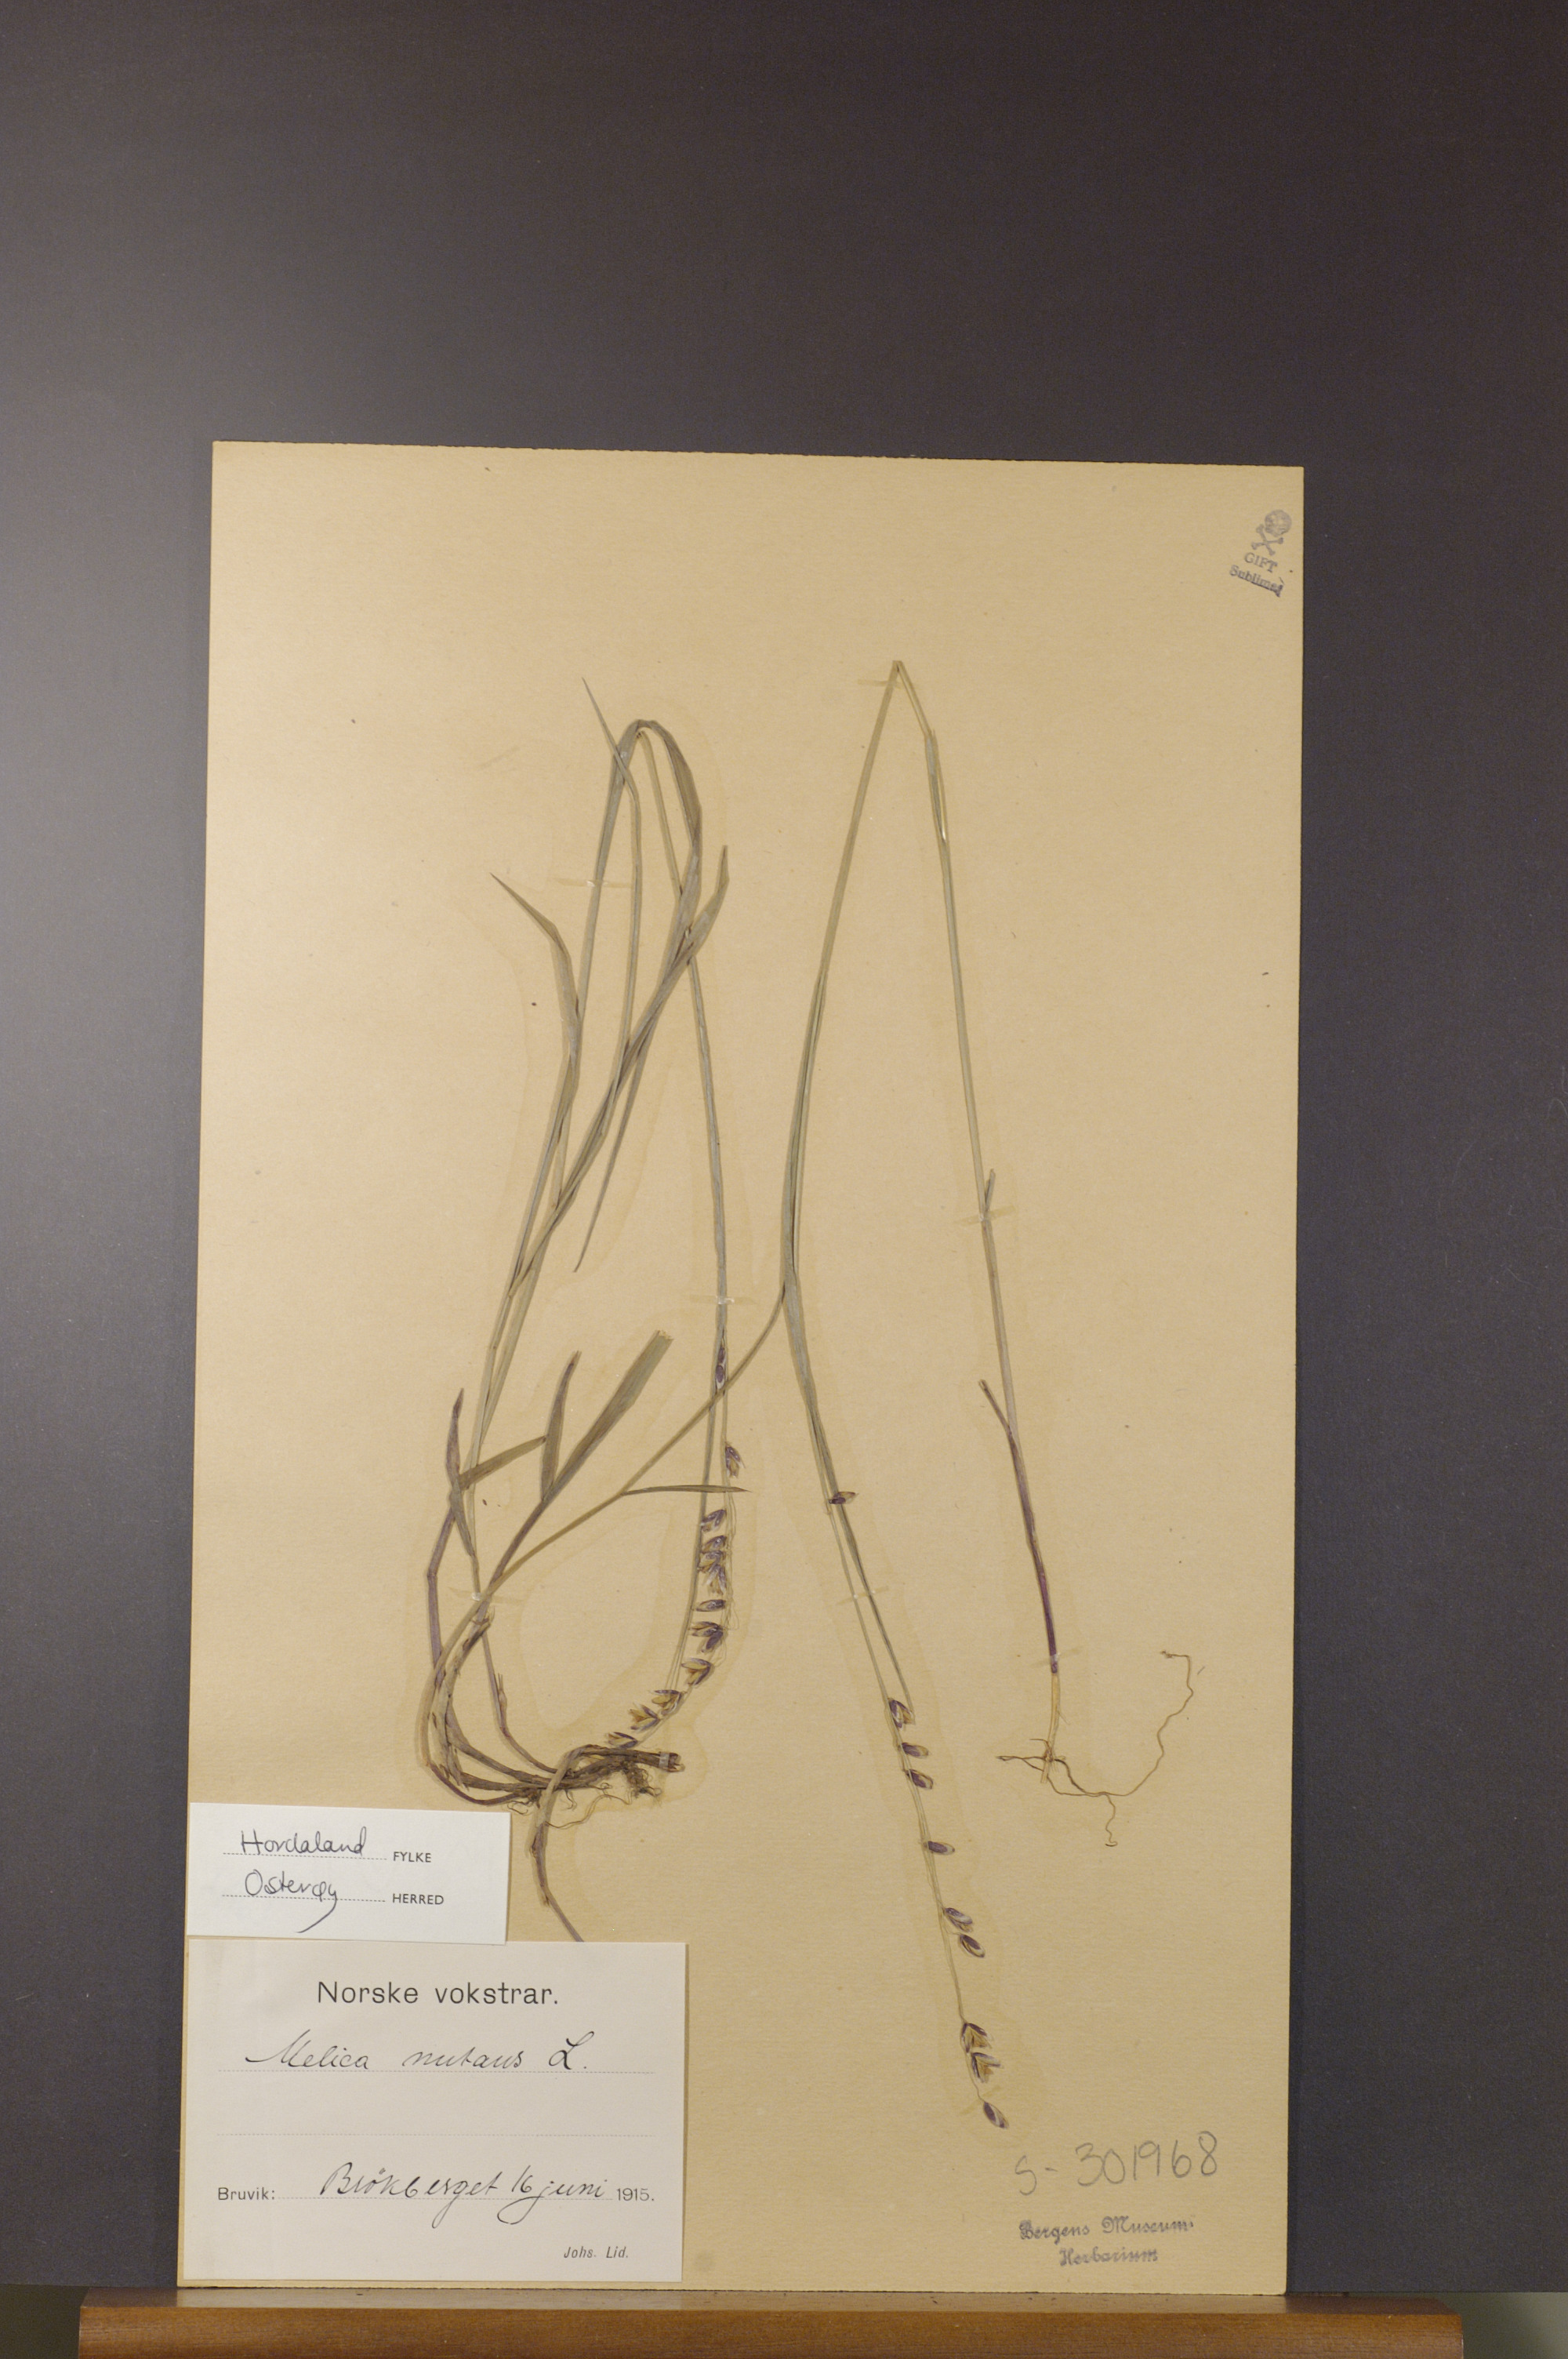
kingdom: Plantae
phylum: Tracheophyta
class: Liliopsida
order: Poales
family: Poaceae
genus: Melica
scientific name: Melica nutans
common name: Mountain melick
